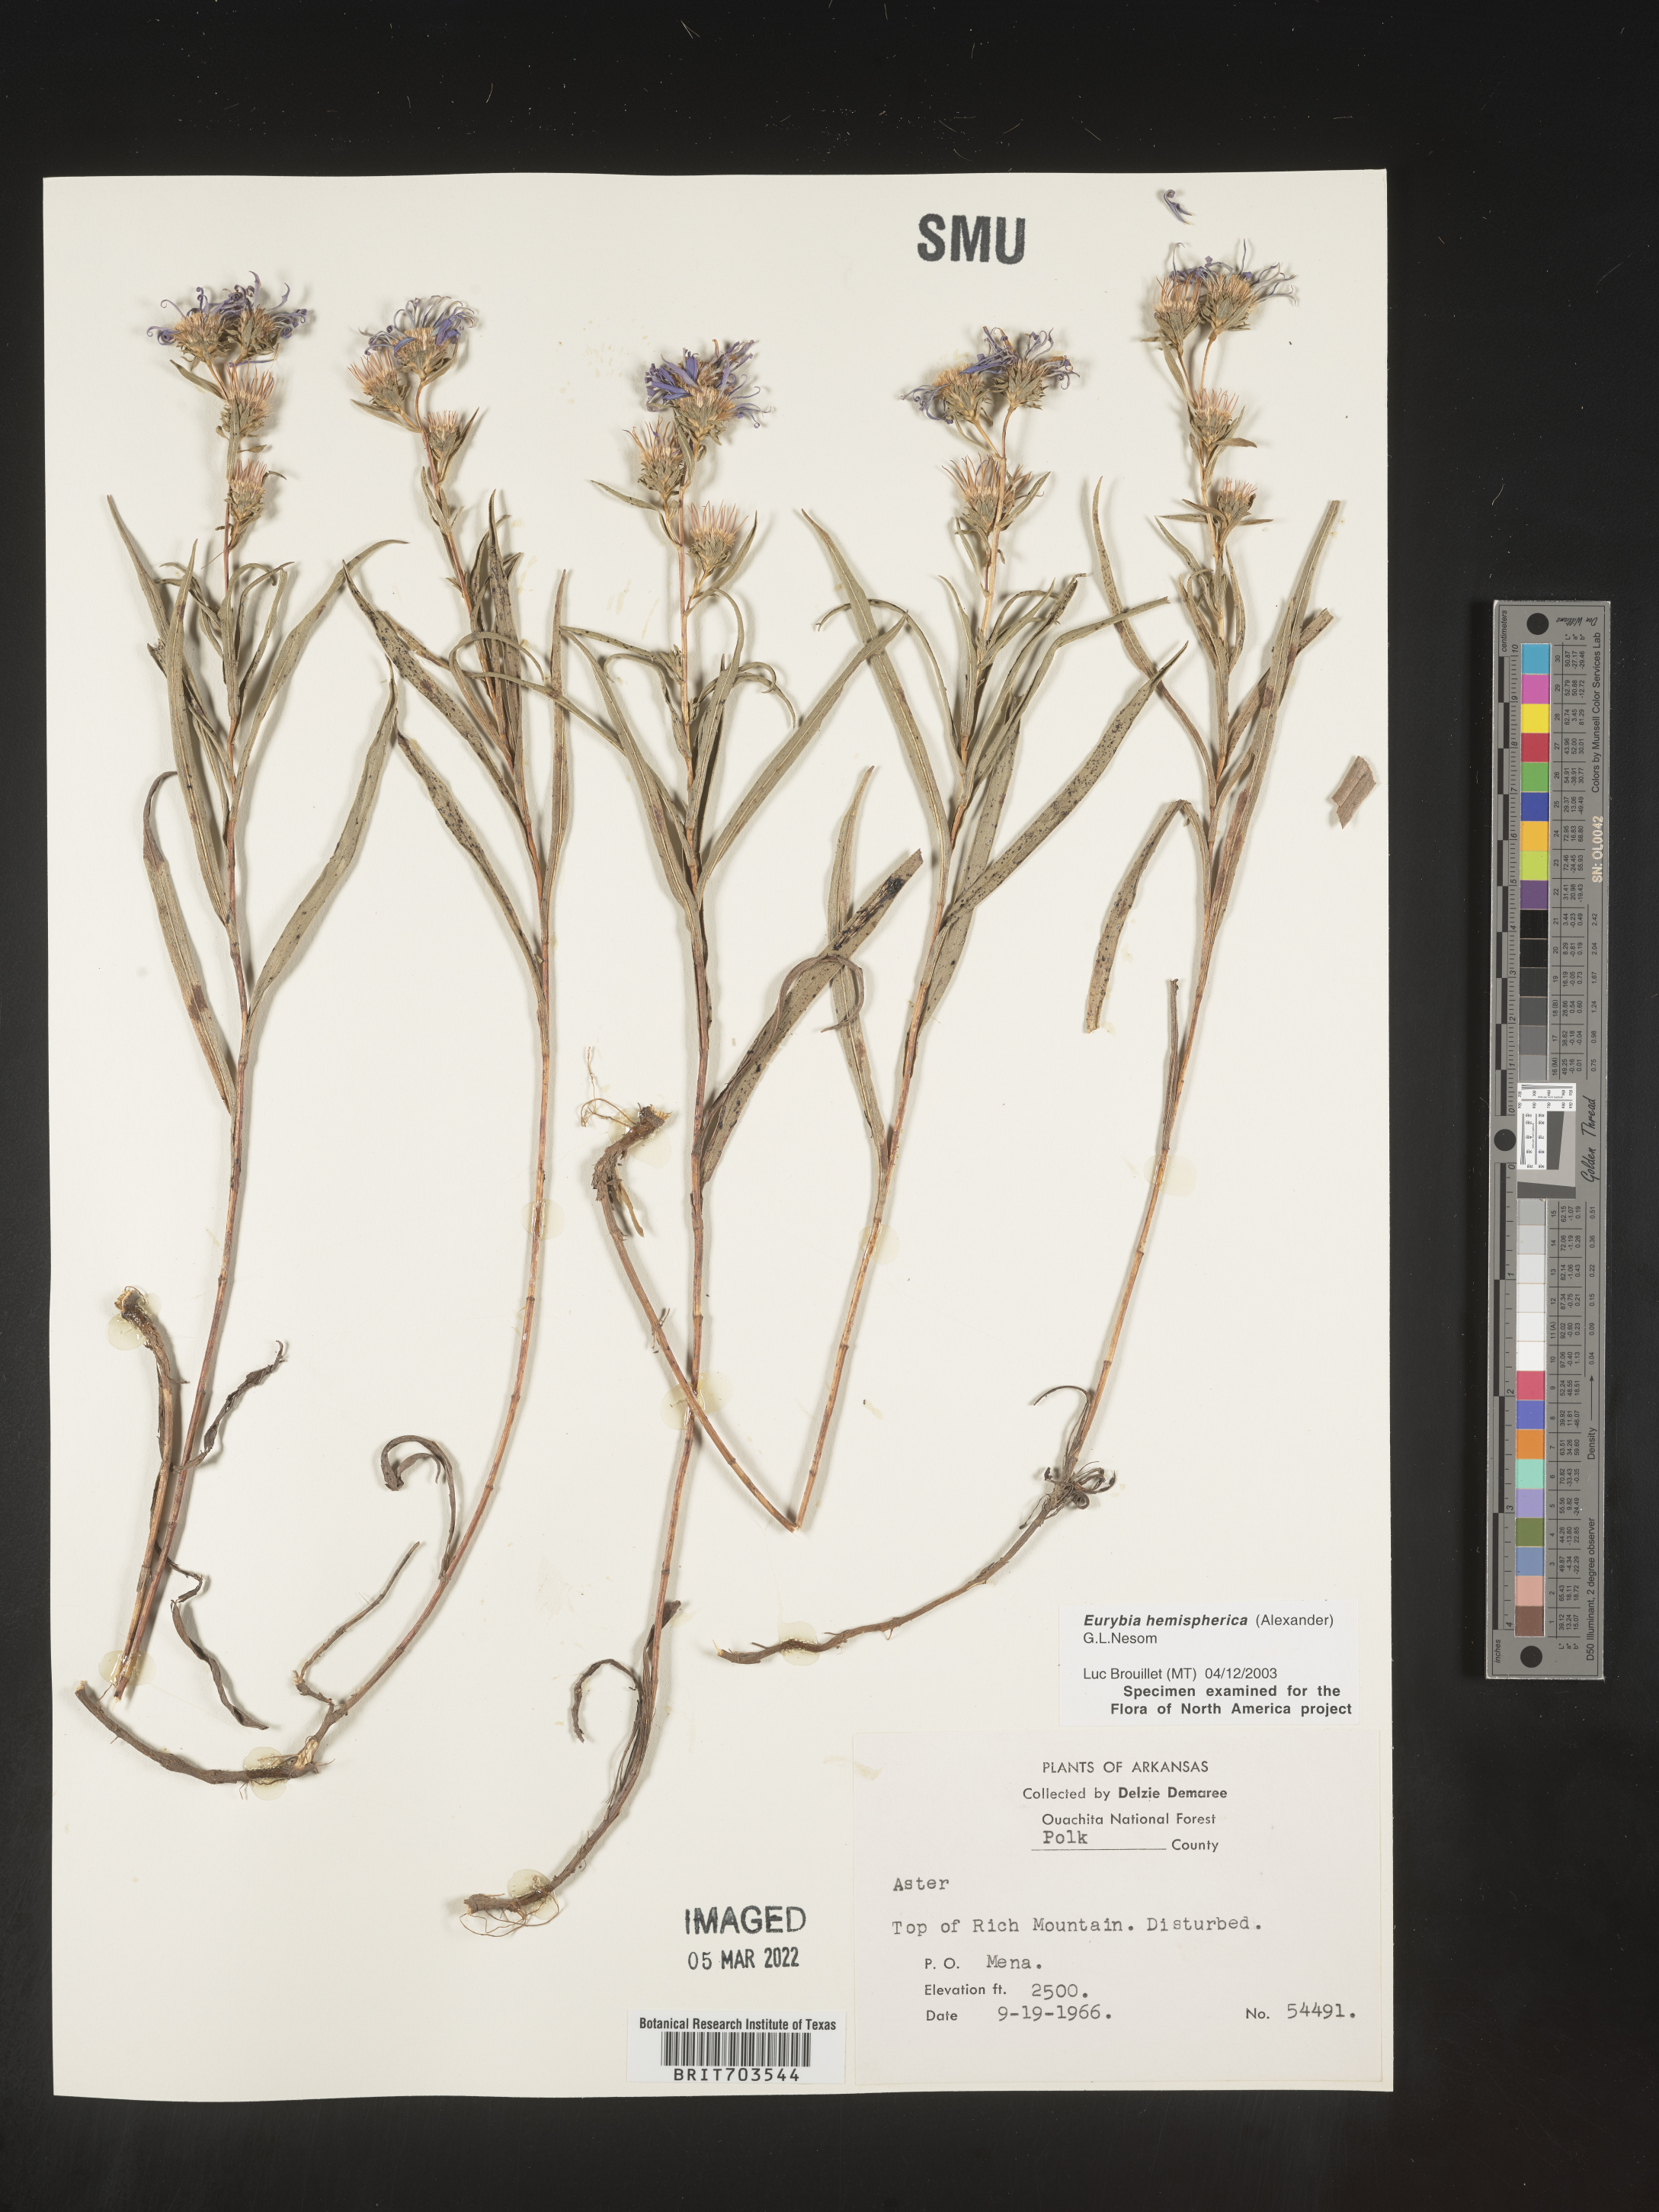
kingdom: Plantae
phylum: Tracheophyta
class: Magnoliopsida
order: Asterales
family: Asteraceae
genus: Eurybia
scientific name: Eurybia hemispherica
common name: Showy aster
